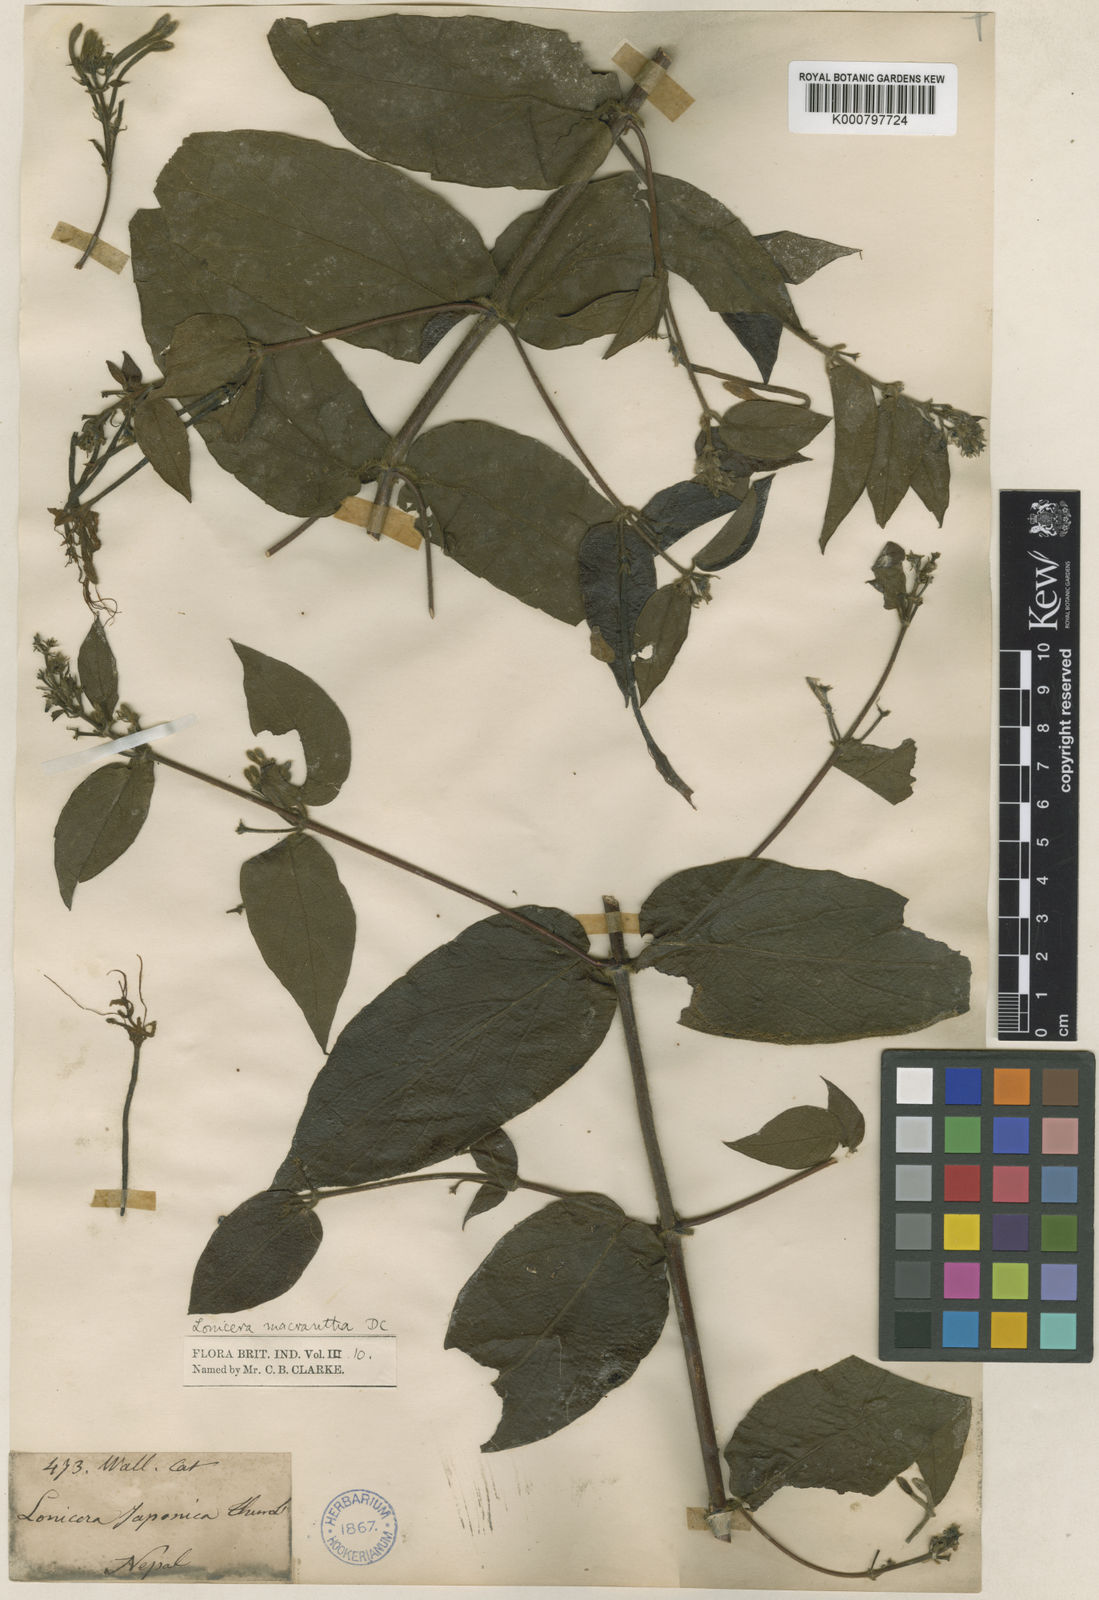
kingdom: Plantae
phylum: Tracheophyta
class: Magnoliopsida
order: Dipsacales
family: Caprifoliaceae
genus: Lonicera
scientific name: Lonicera macrantha
